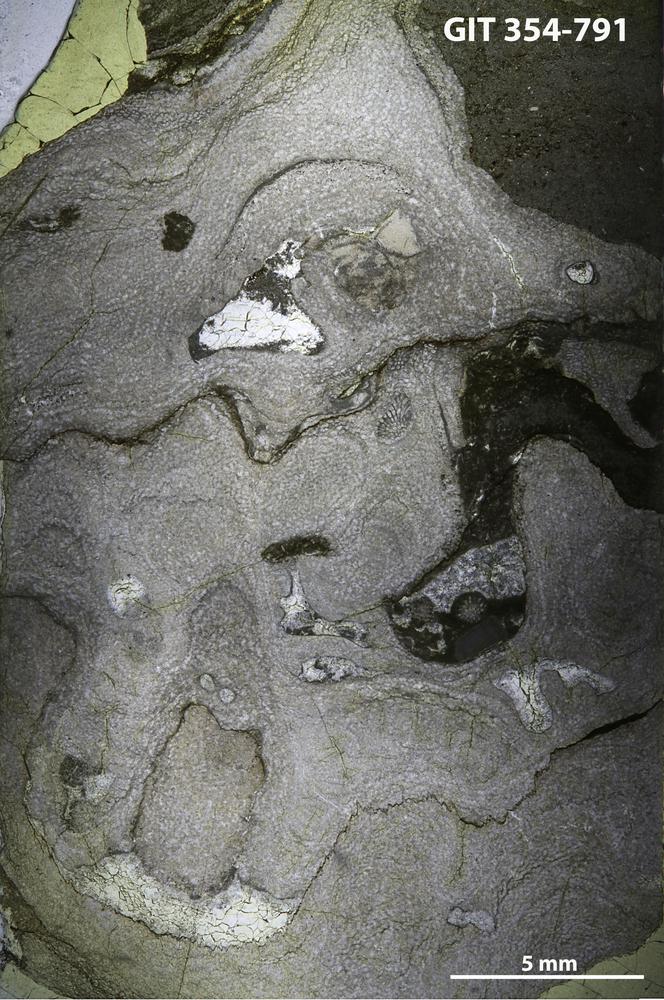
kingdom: Animalia
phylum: Porifera
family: Clathrodictyidae
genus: Clathrodictyon
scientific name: Clathrodictyon
